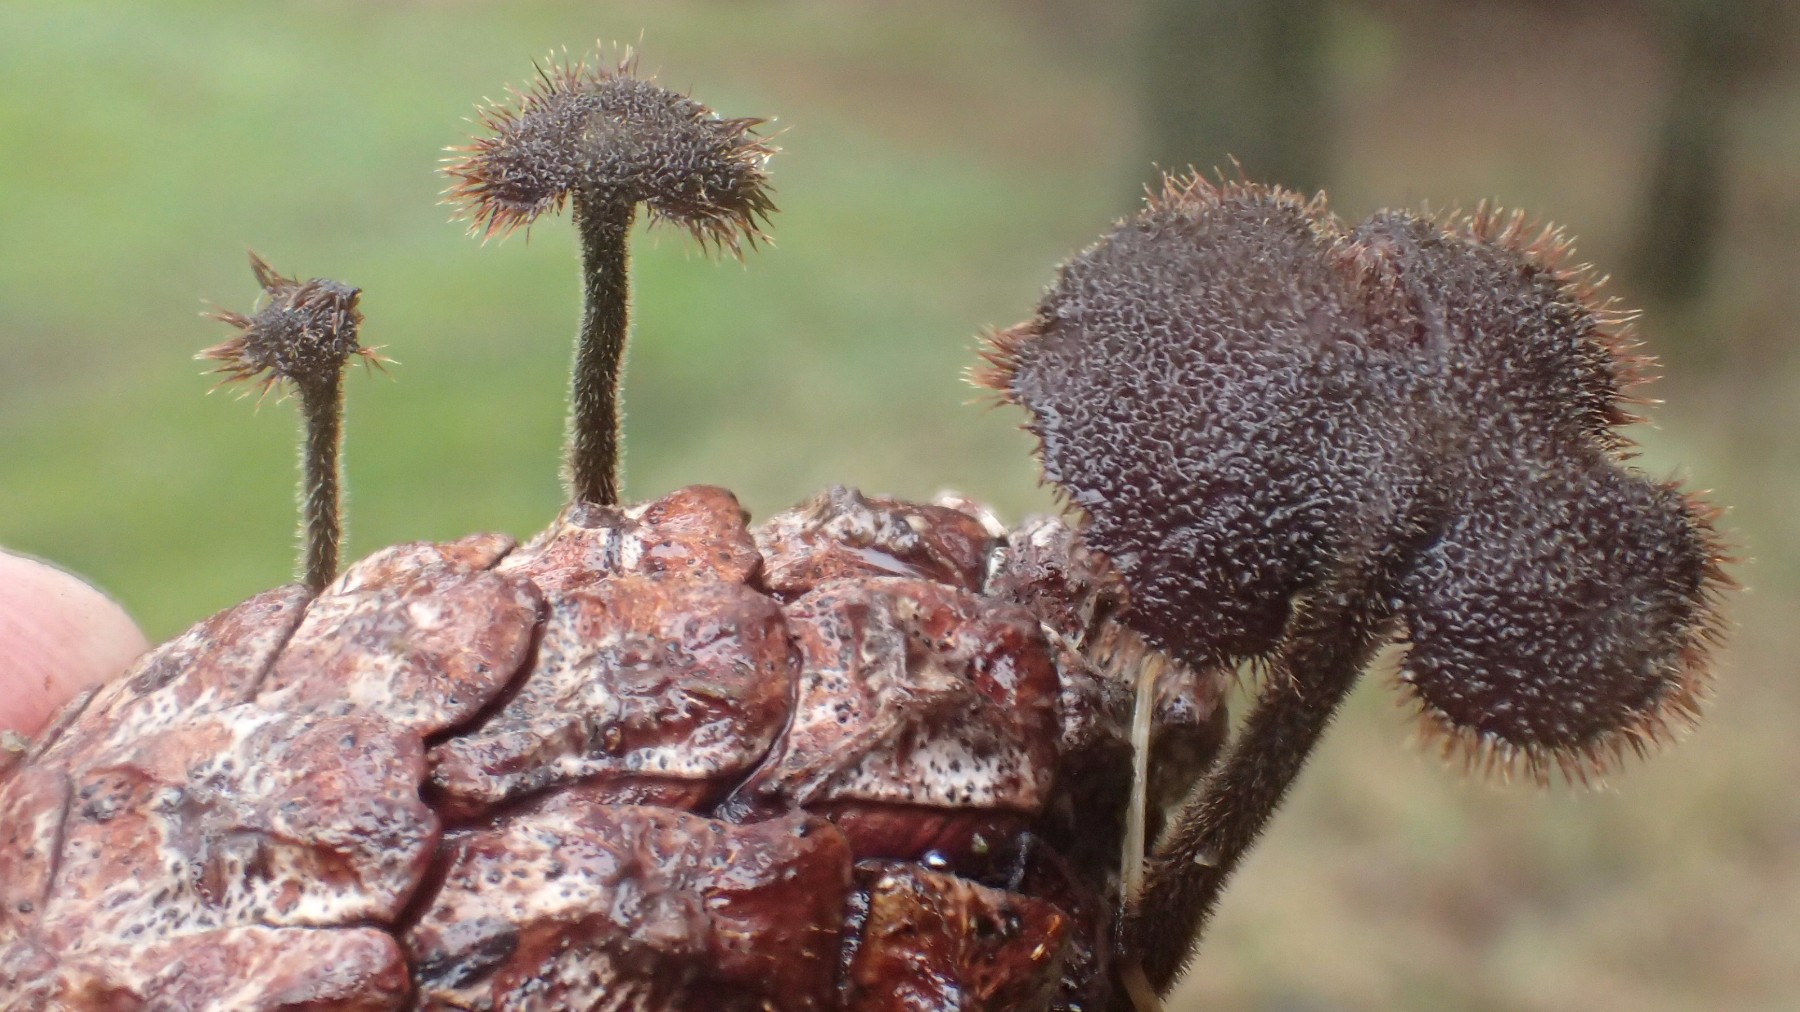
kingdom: Fungi
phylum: Basidiomycota
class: Agaricomycetes
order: Russulales
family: Auriscalpiaceae
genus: Auriscalpium
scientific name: Auriscalpium vulgare
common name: koglepigsvamp
